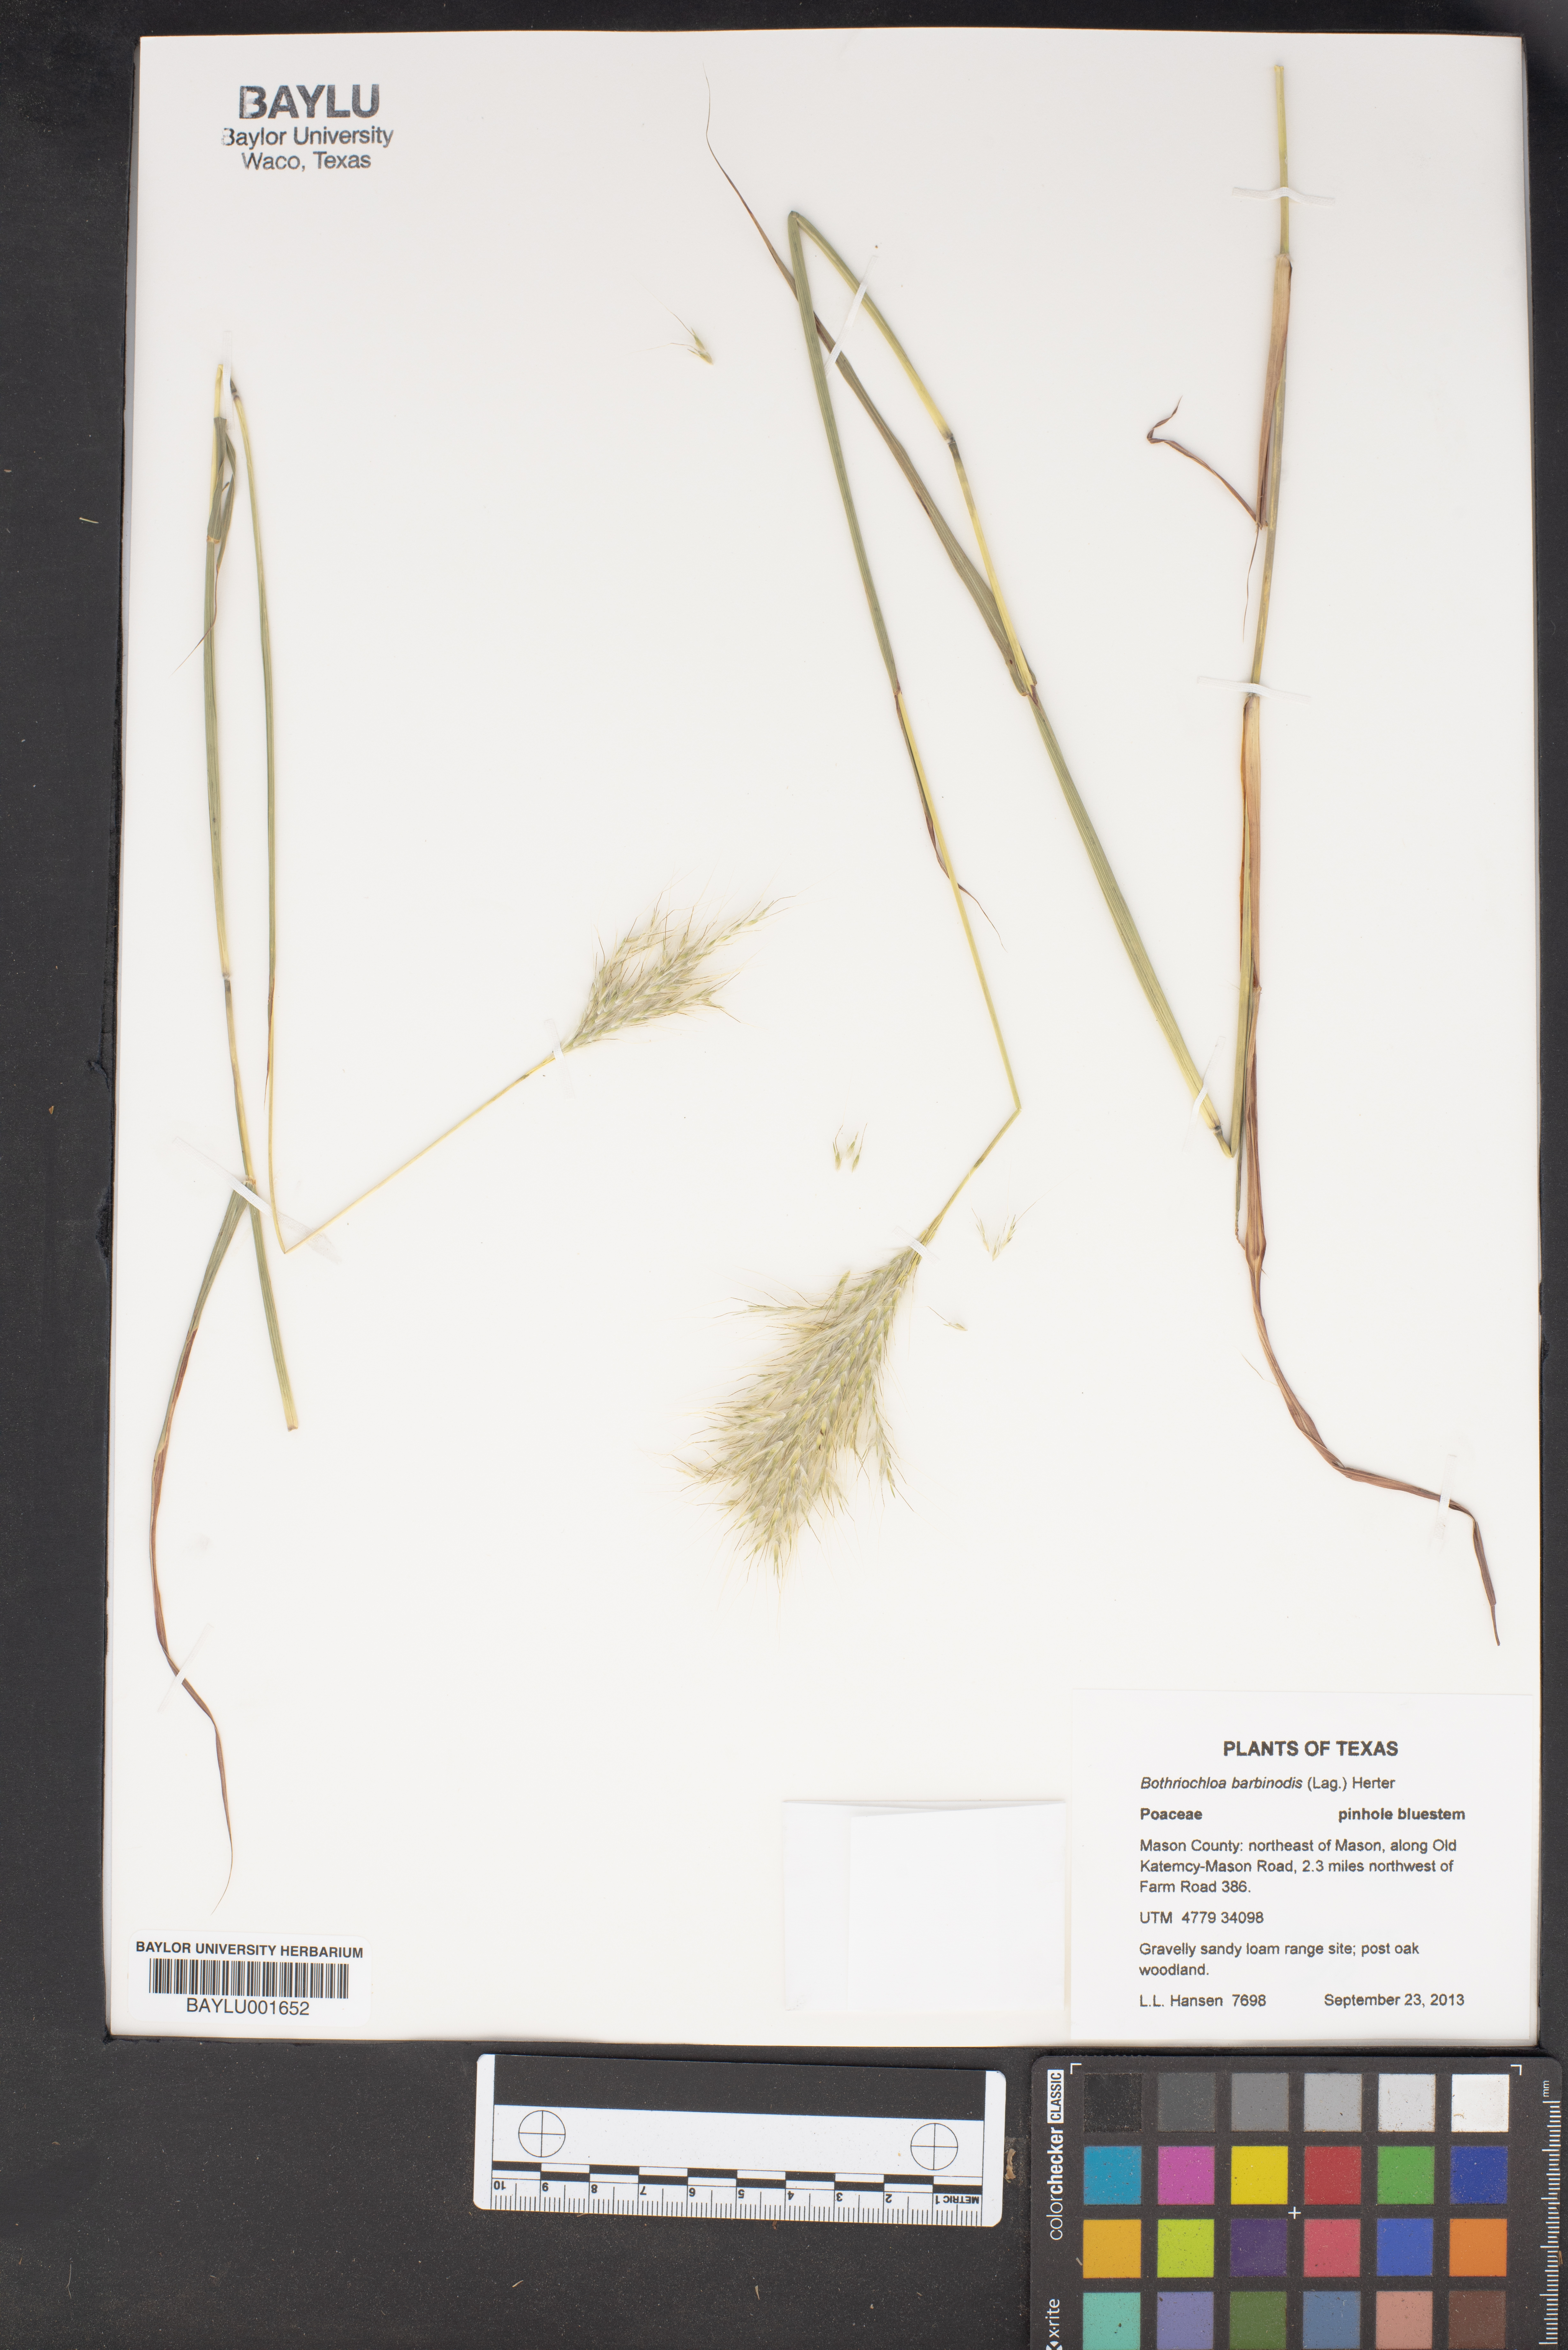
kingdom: Plantae
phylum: Tracheophyta
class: Liliopsida
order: Poales
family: Poaceae
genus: Bothriochloa
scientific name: Bothriochloa barbinodis
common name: Cane bluestem
